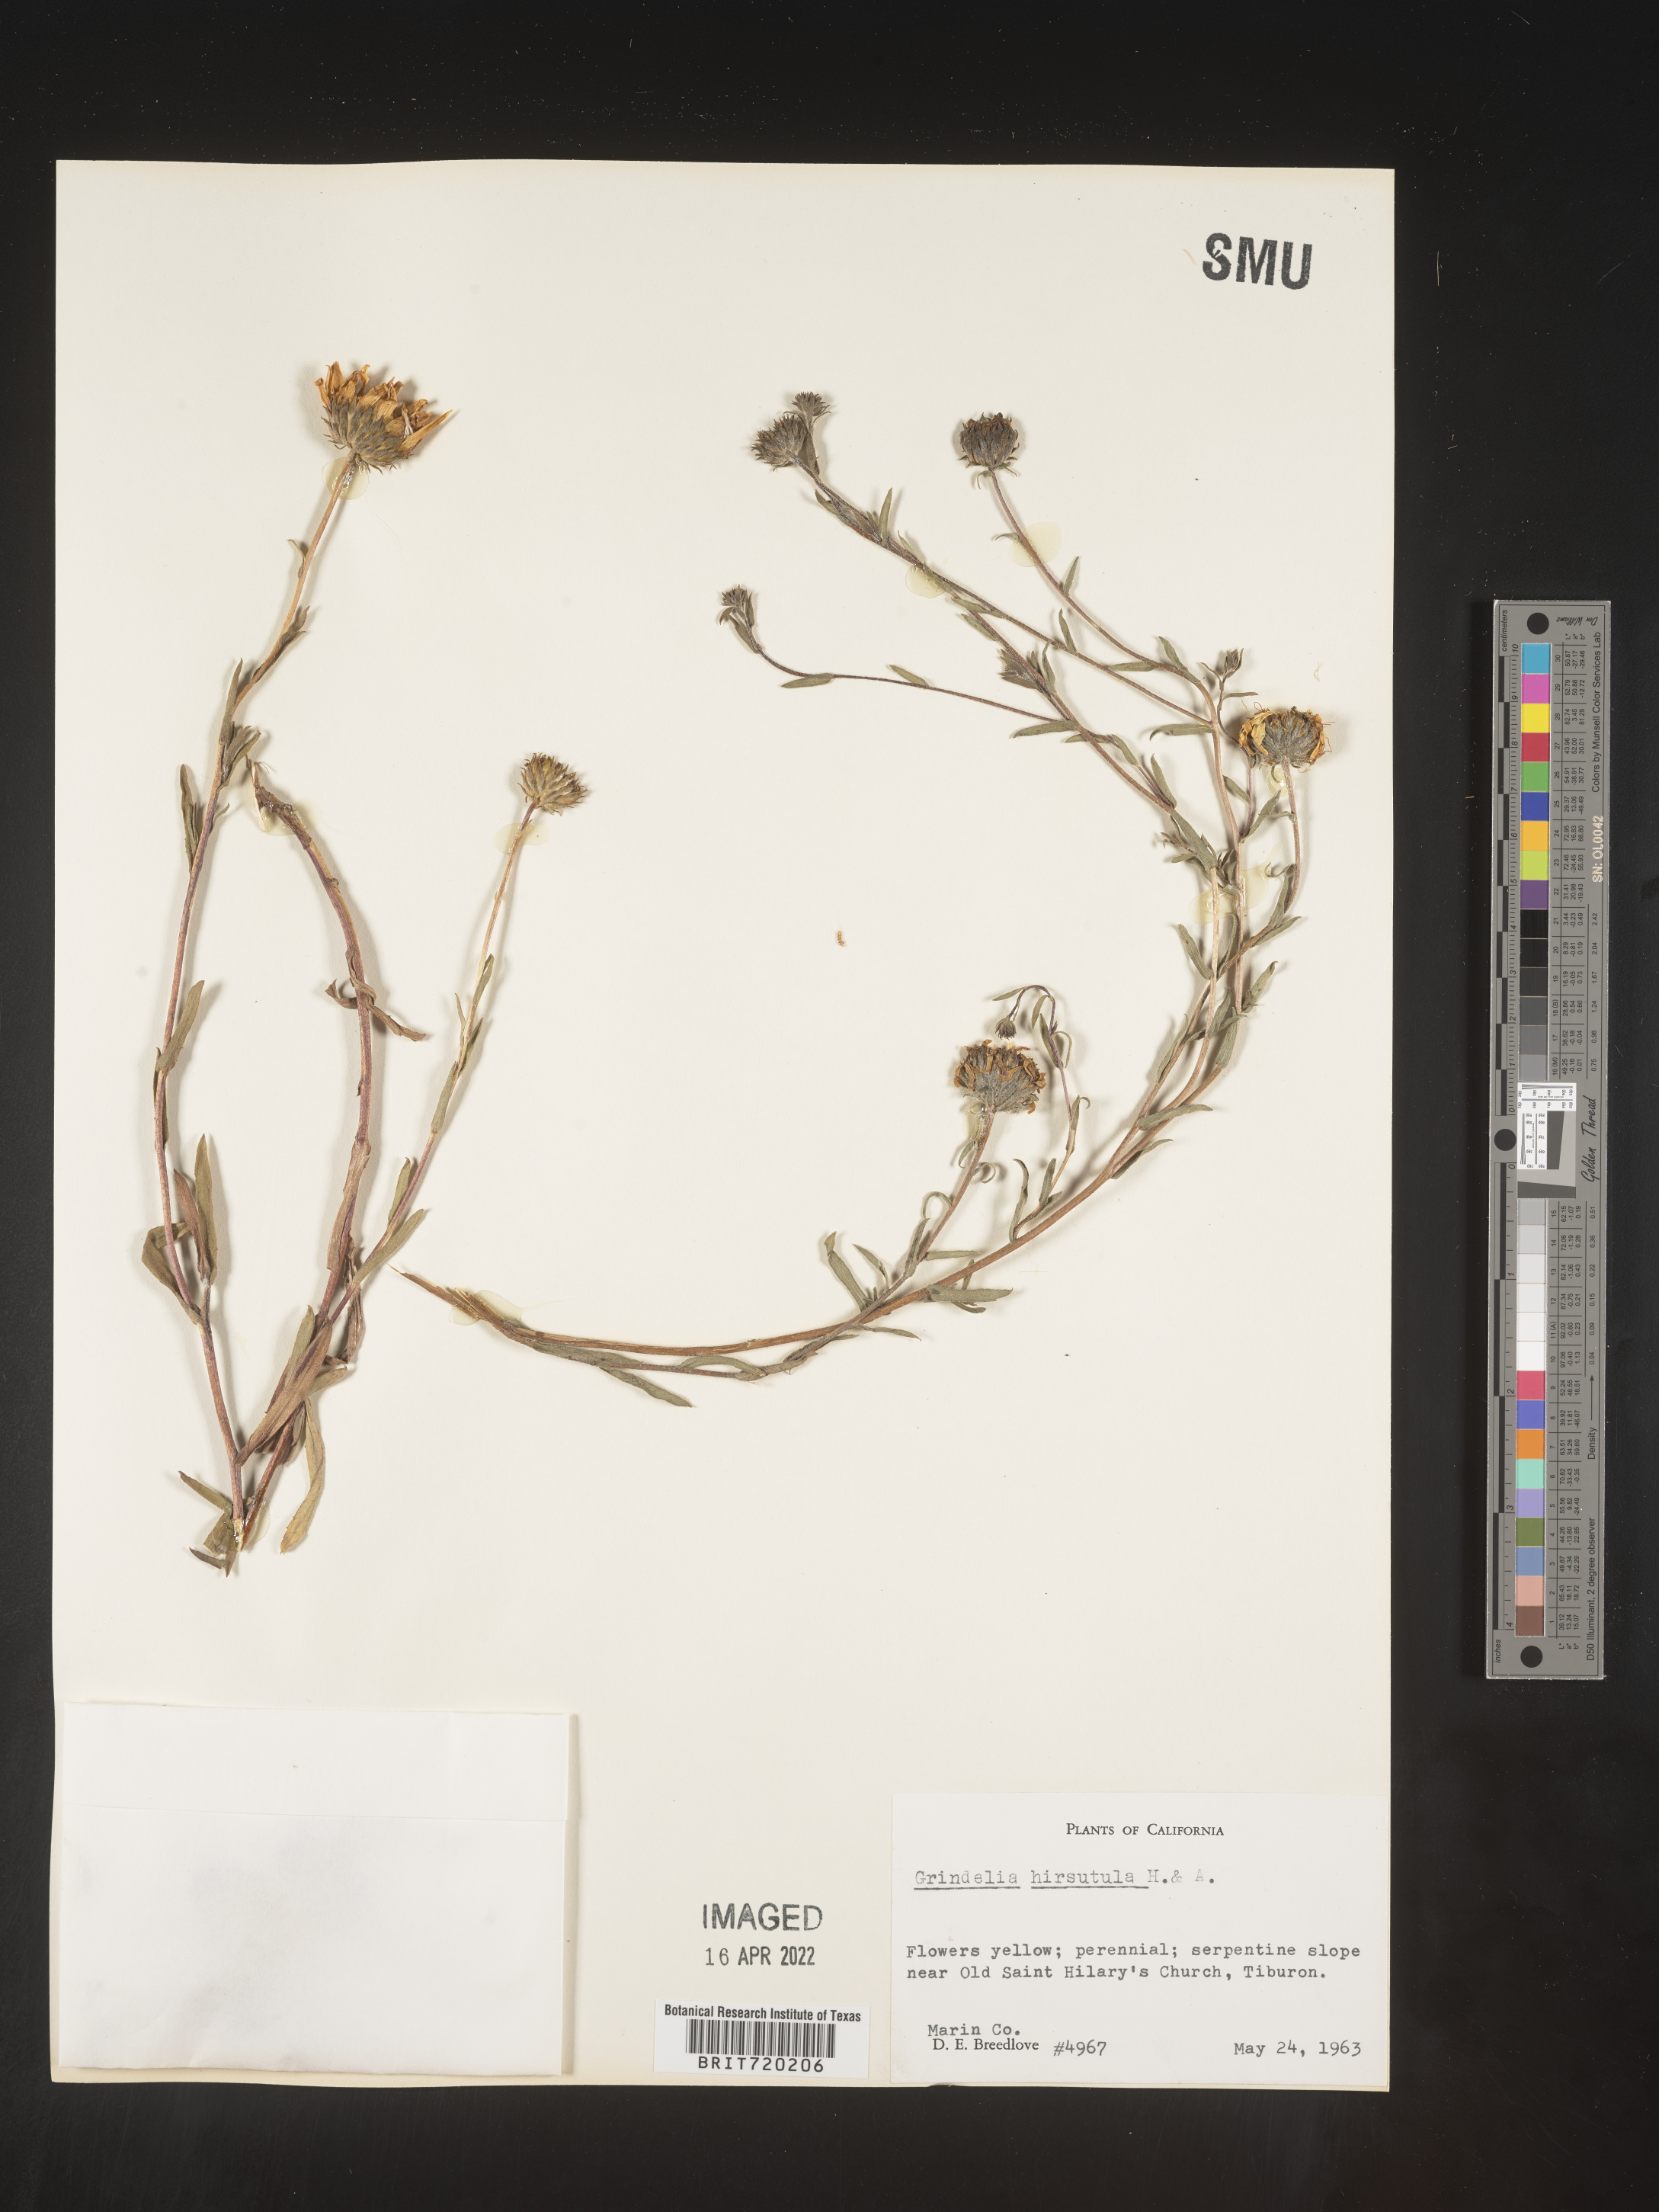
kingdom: Plantae
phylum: Tracheophyta
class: Magnoliopsida
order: Asterales
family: Asteraceae
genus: Grindelia
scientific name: Grindelia hirsutula
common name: Hairy gumweed
